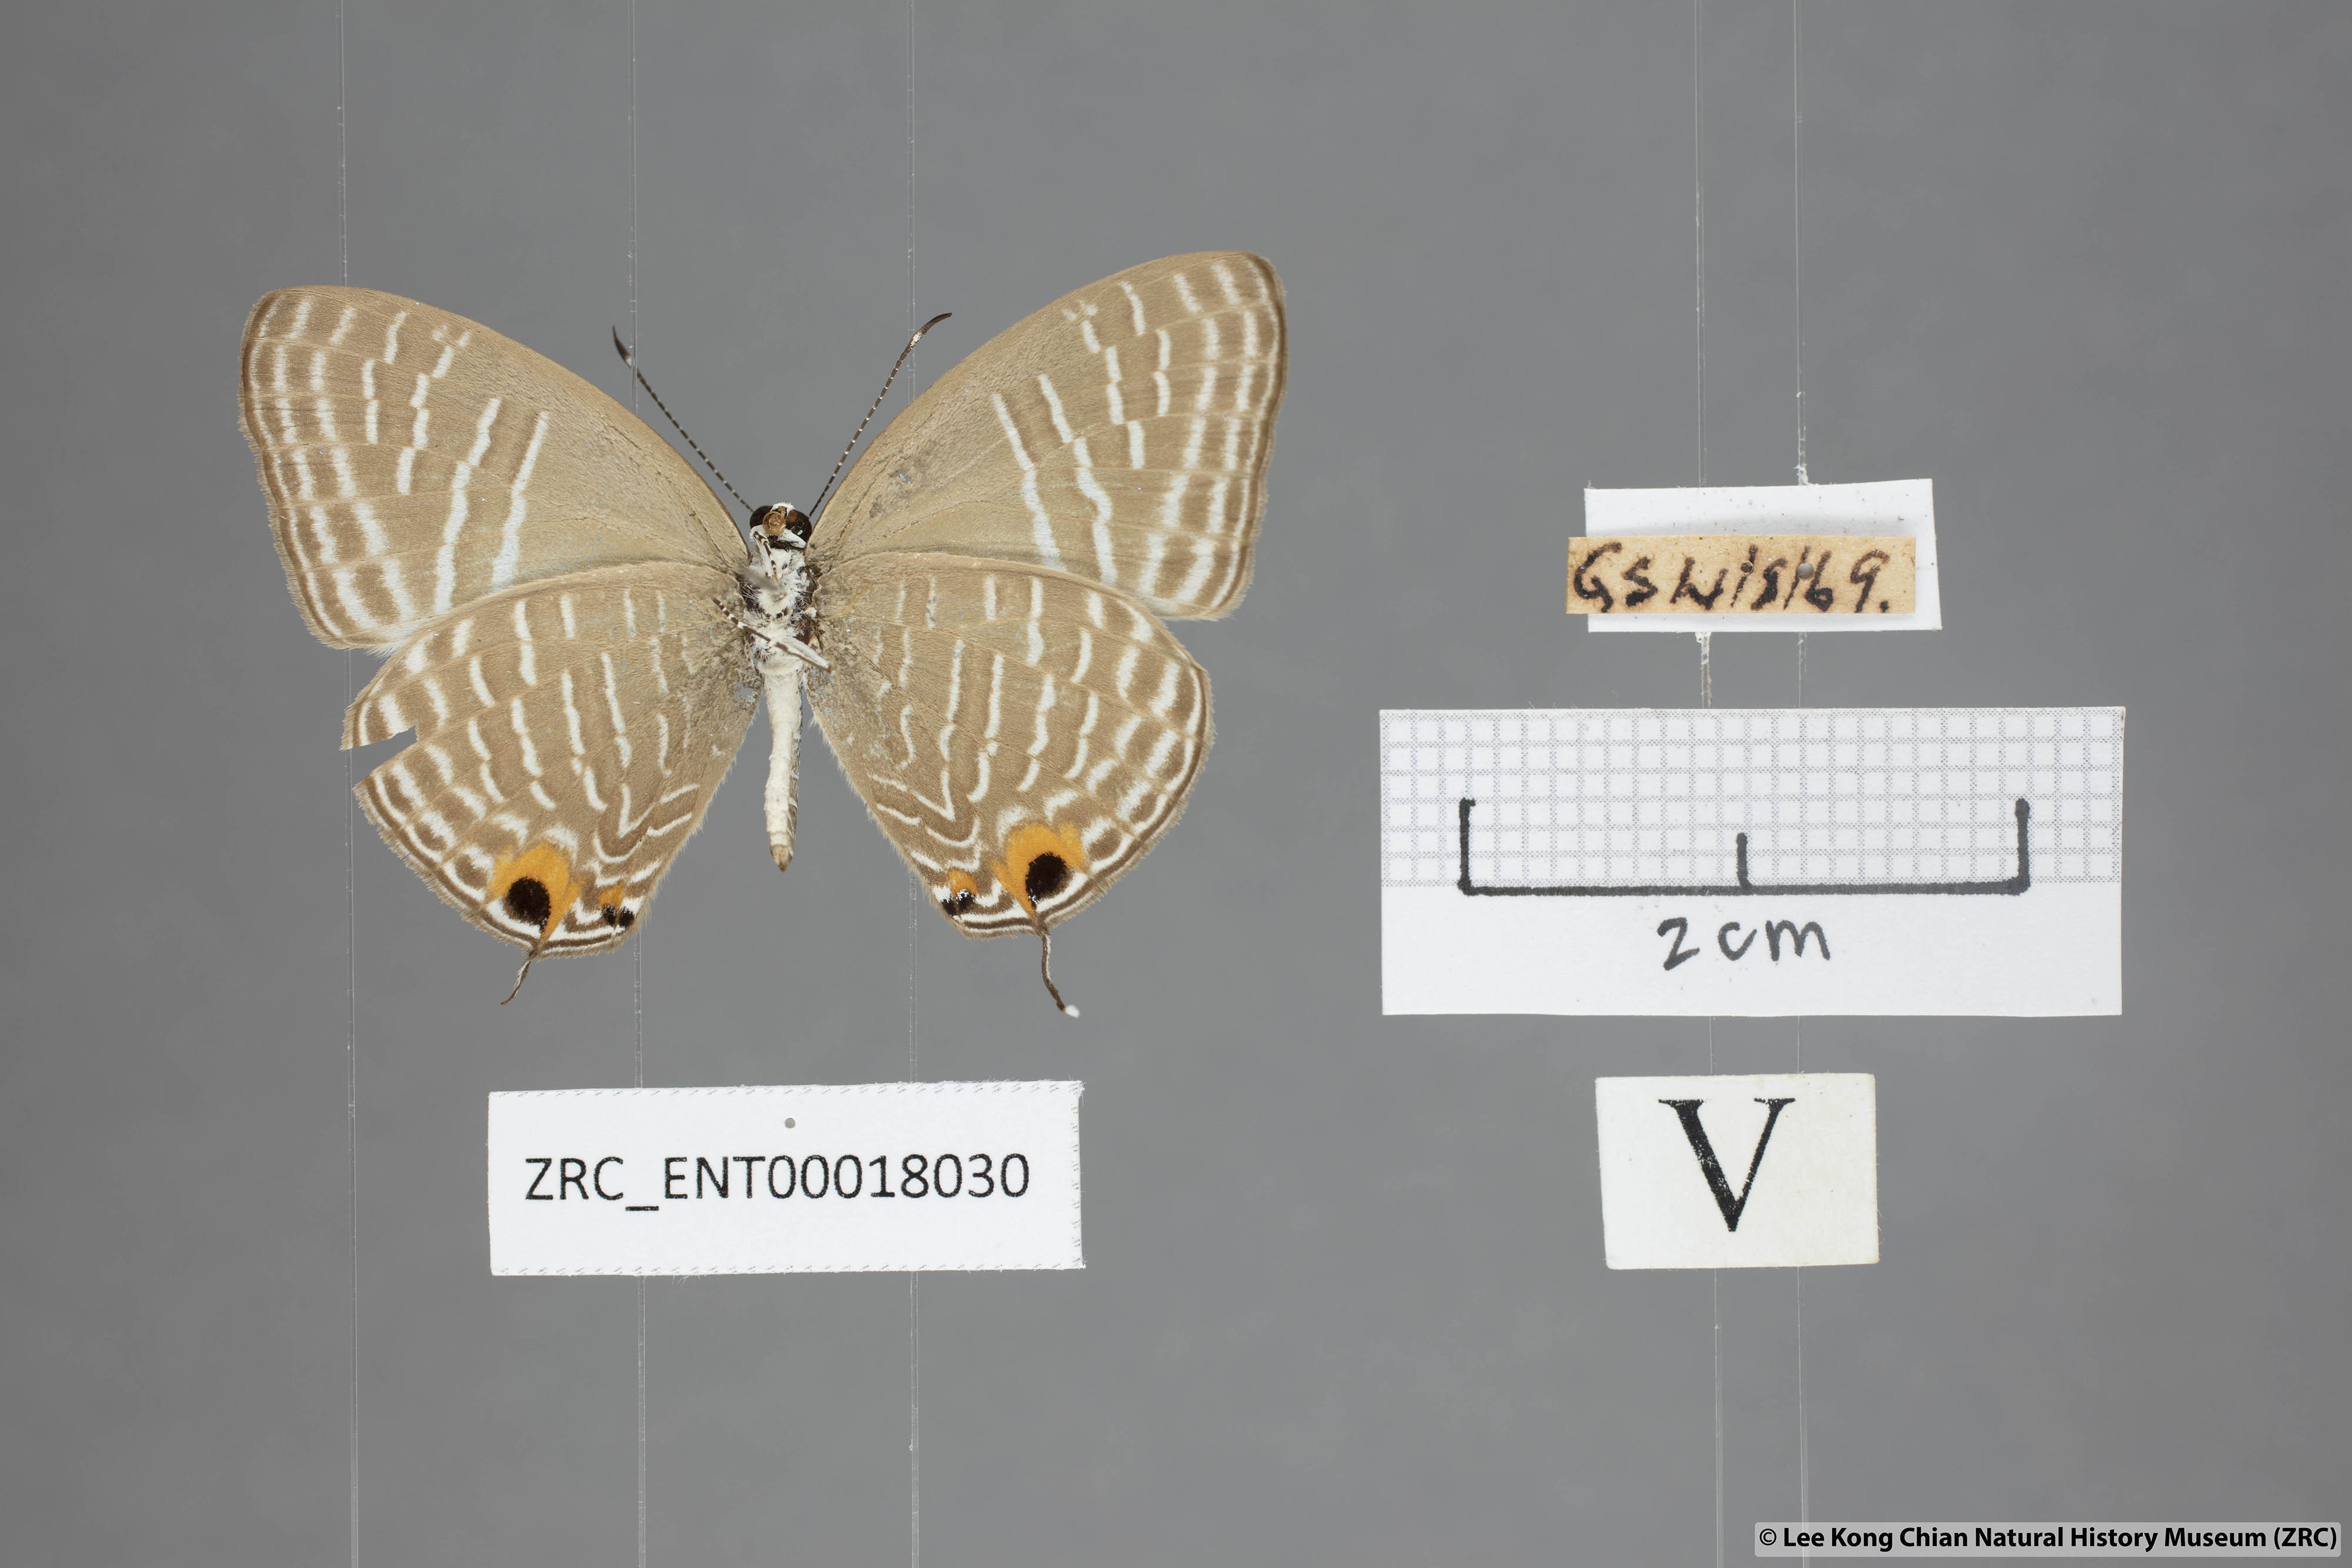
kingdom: Animalia
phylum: Arthropoda
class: Insecta
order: Lepidoptera
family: Lycaenidae
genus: Jamides
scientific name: Jamides alecto
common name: Metallic cerulean
